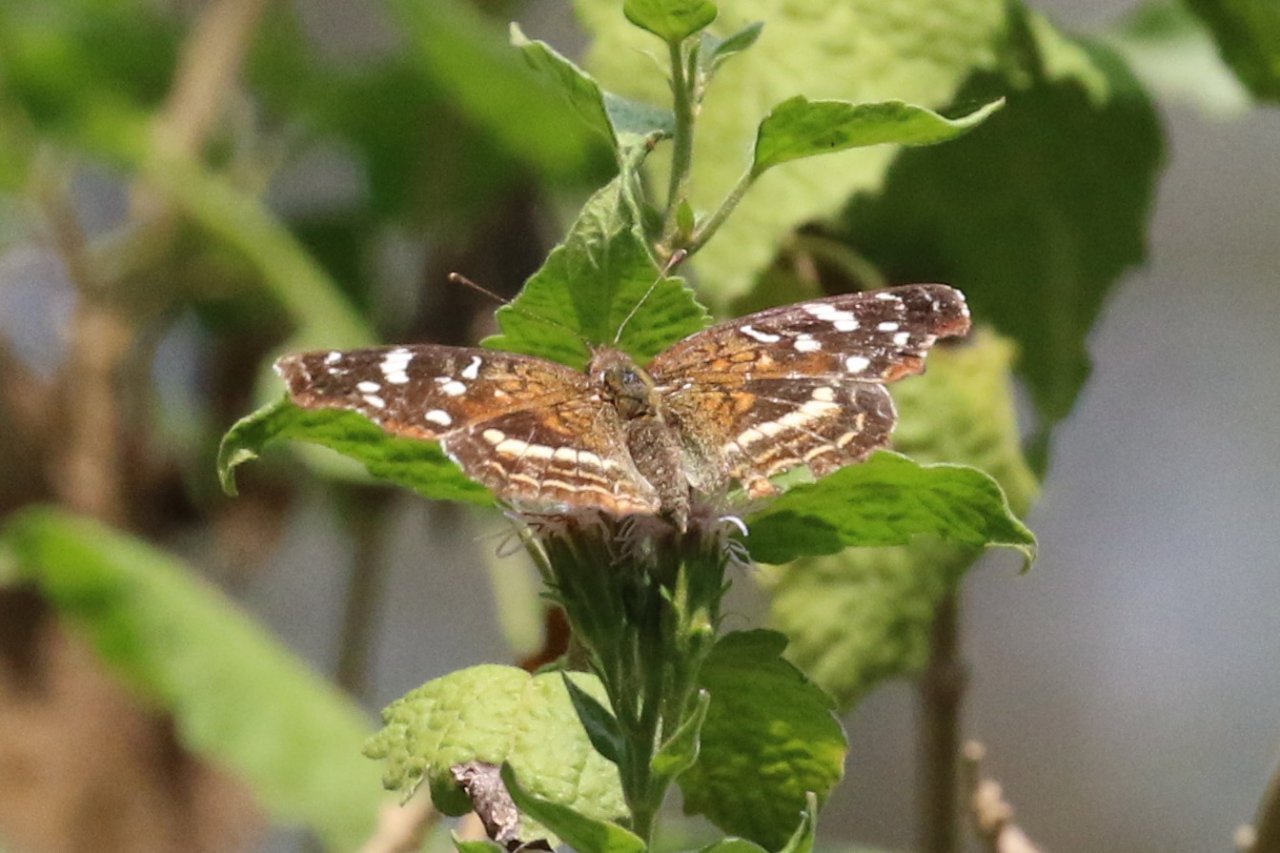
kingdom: Animalia
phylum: Arthropoda
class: Insecta
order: Lepidoptera
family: Nymphalidae
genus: Anthanassa
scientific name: Anthanassa argentea
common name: Chestnut Crescent
